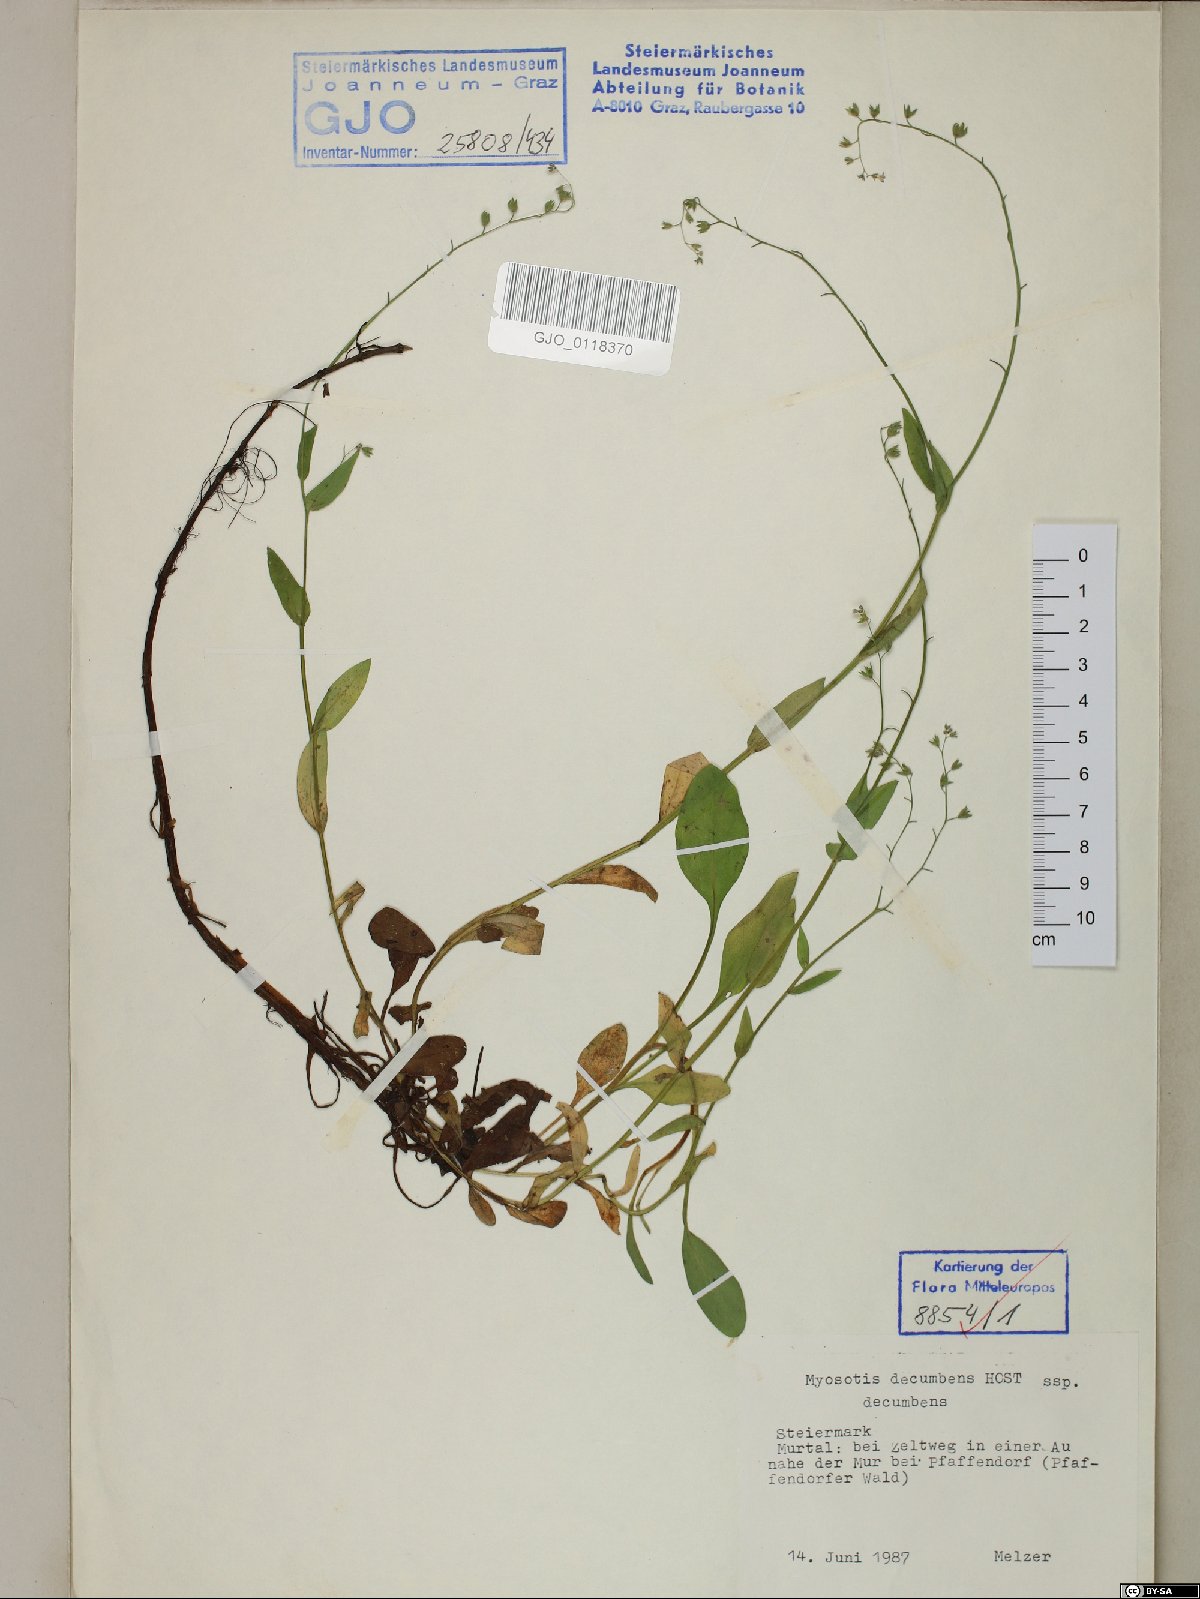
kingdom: Plantae
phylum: Tracheophyta
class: Magnoliopsida
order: Boraginales
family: Boraginaceae
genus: Myosotis
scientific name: Myosotis decumbens
